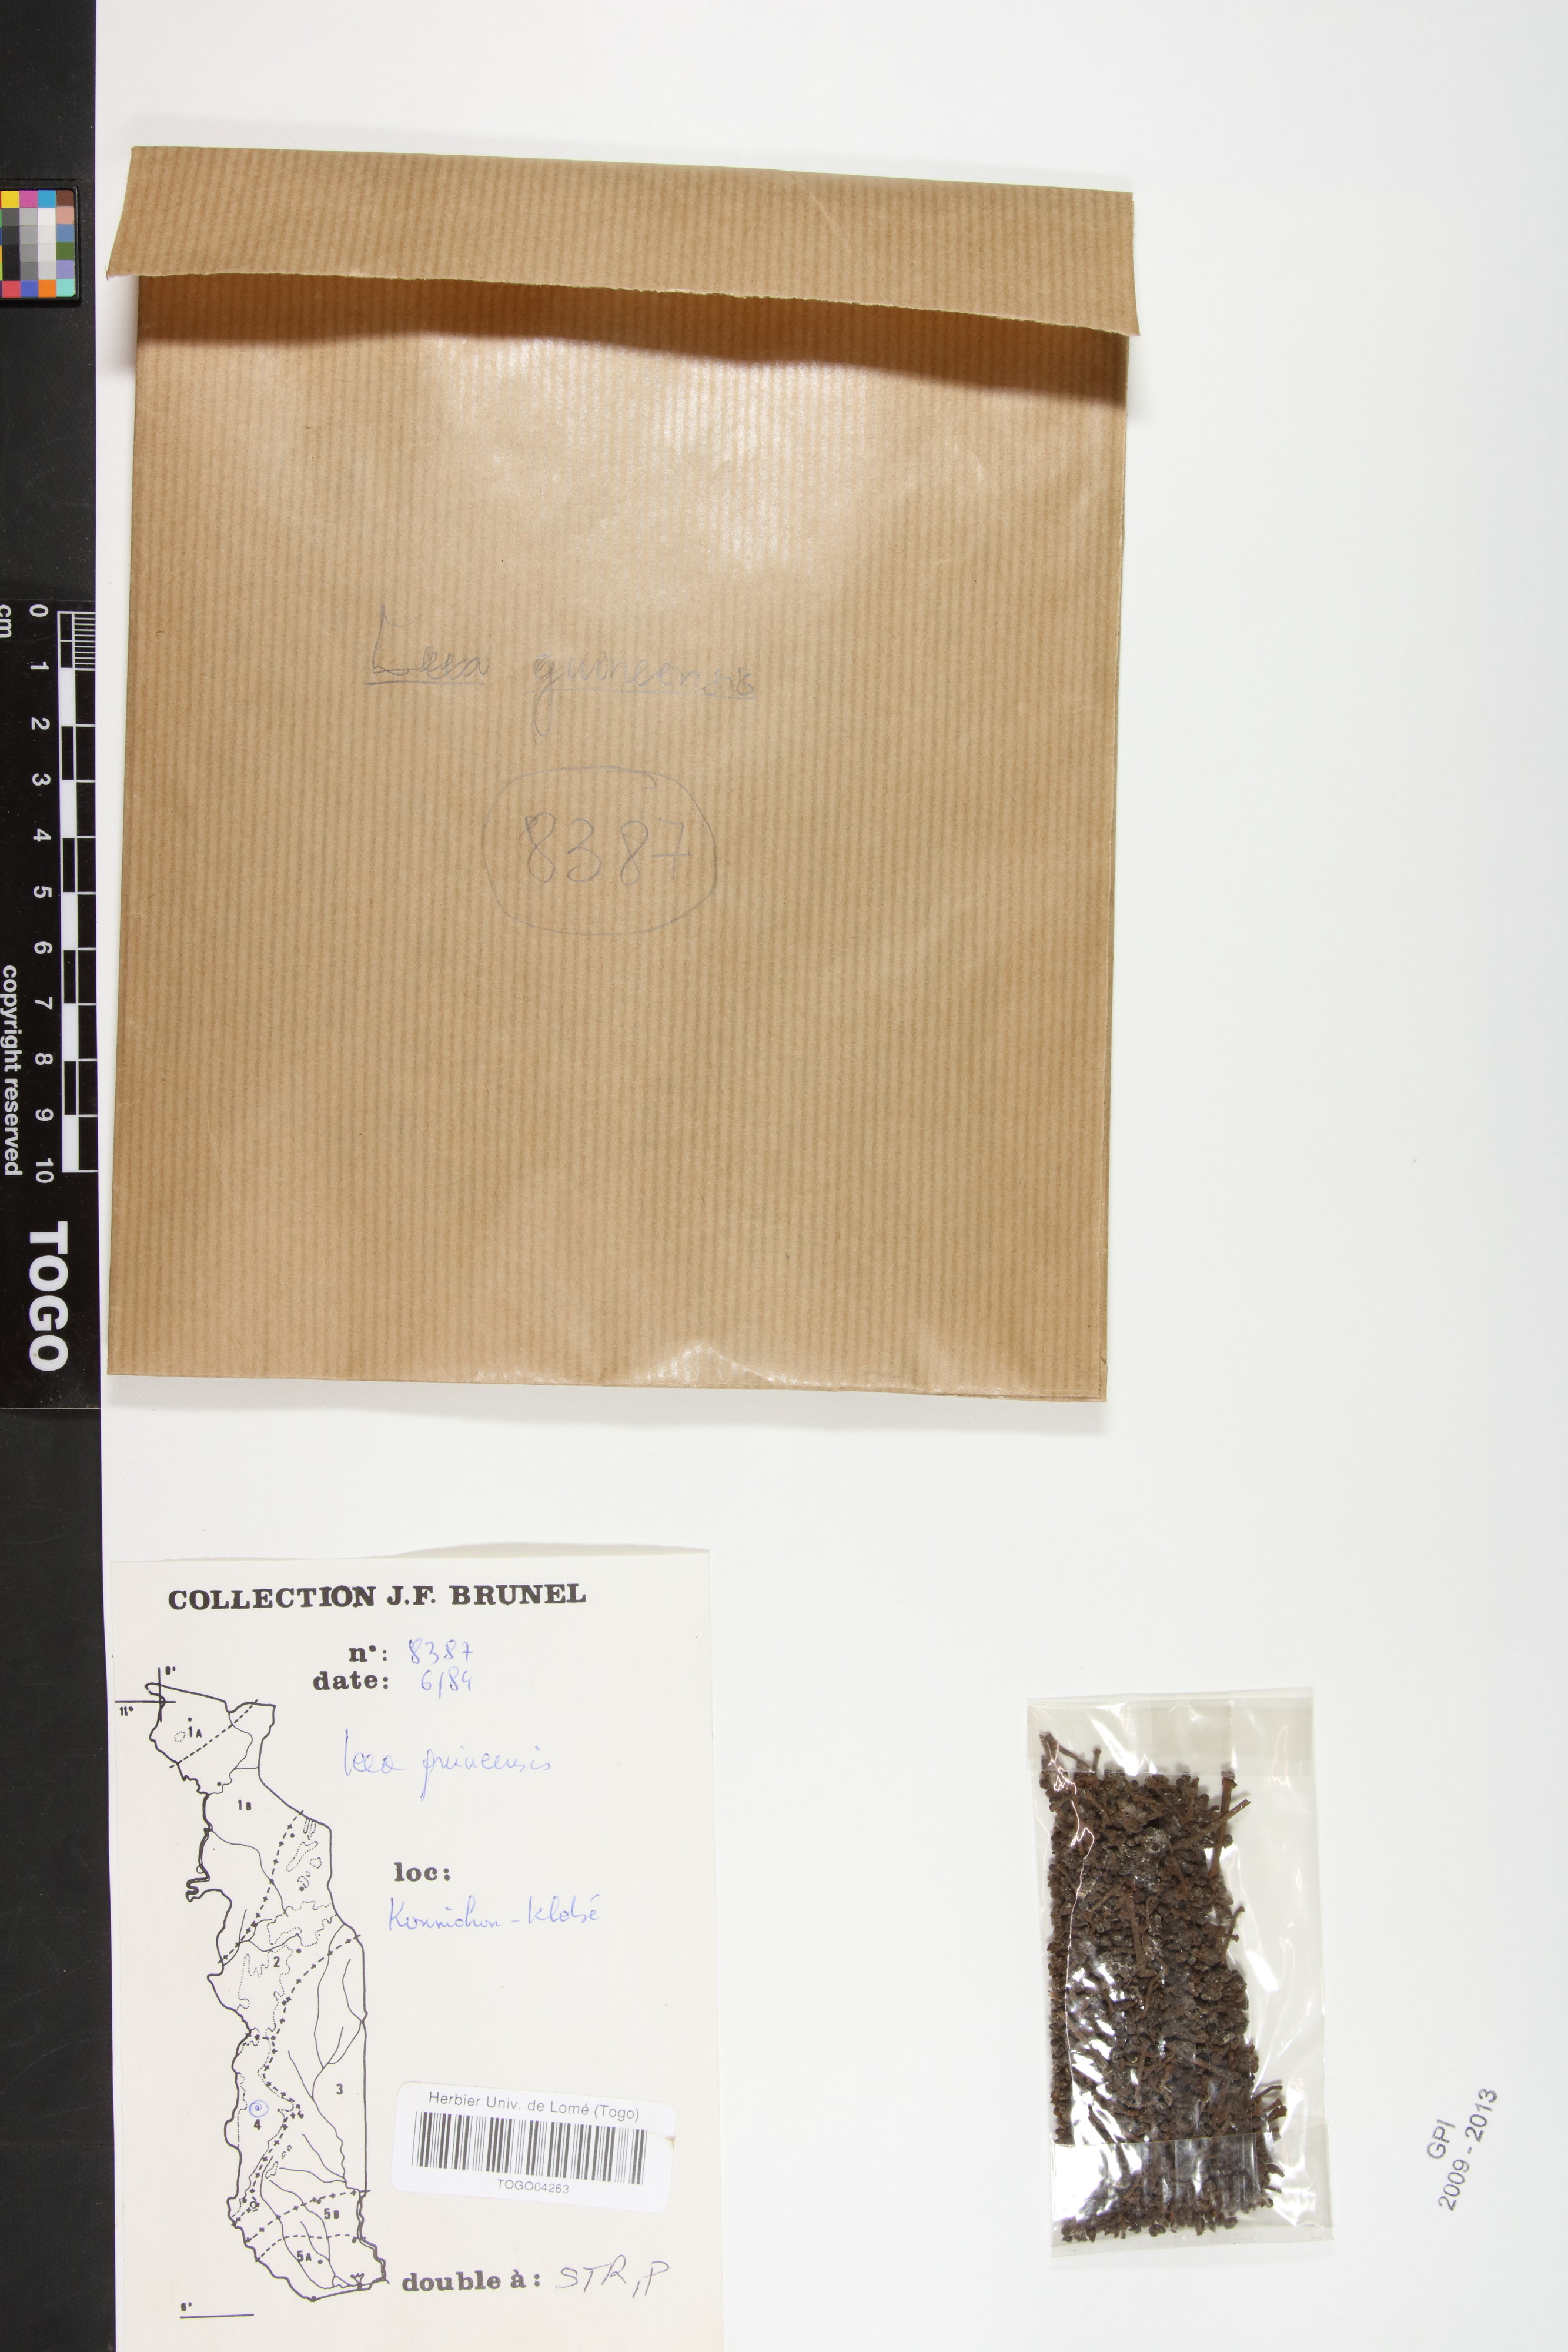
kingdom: Plantae
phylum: Tracheophyta
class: Magnoliopsida
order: Vitales
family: Vitaceae
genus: Leea
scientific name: Leea guineensis
